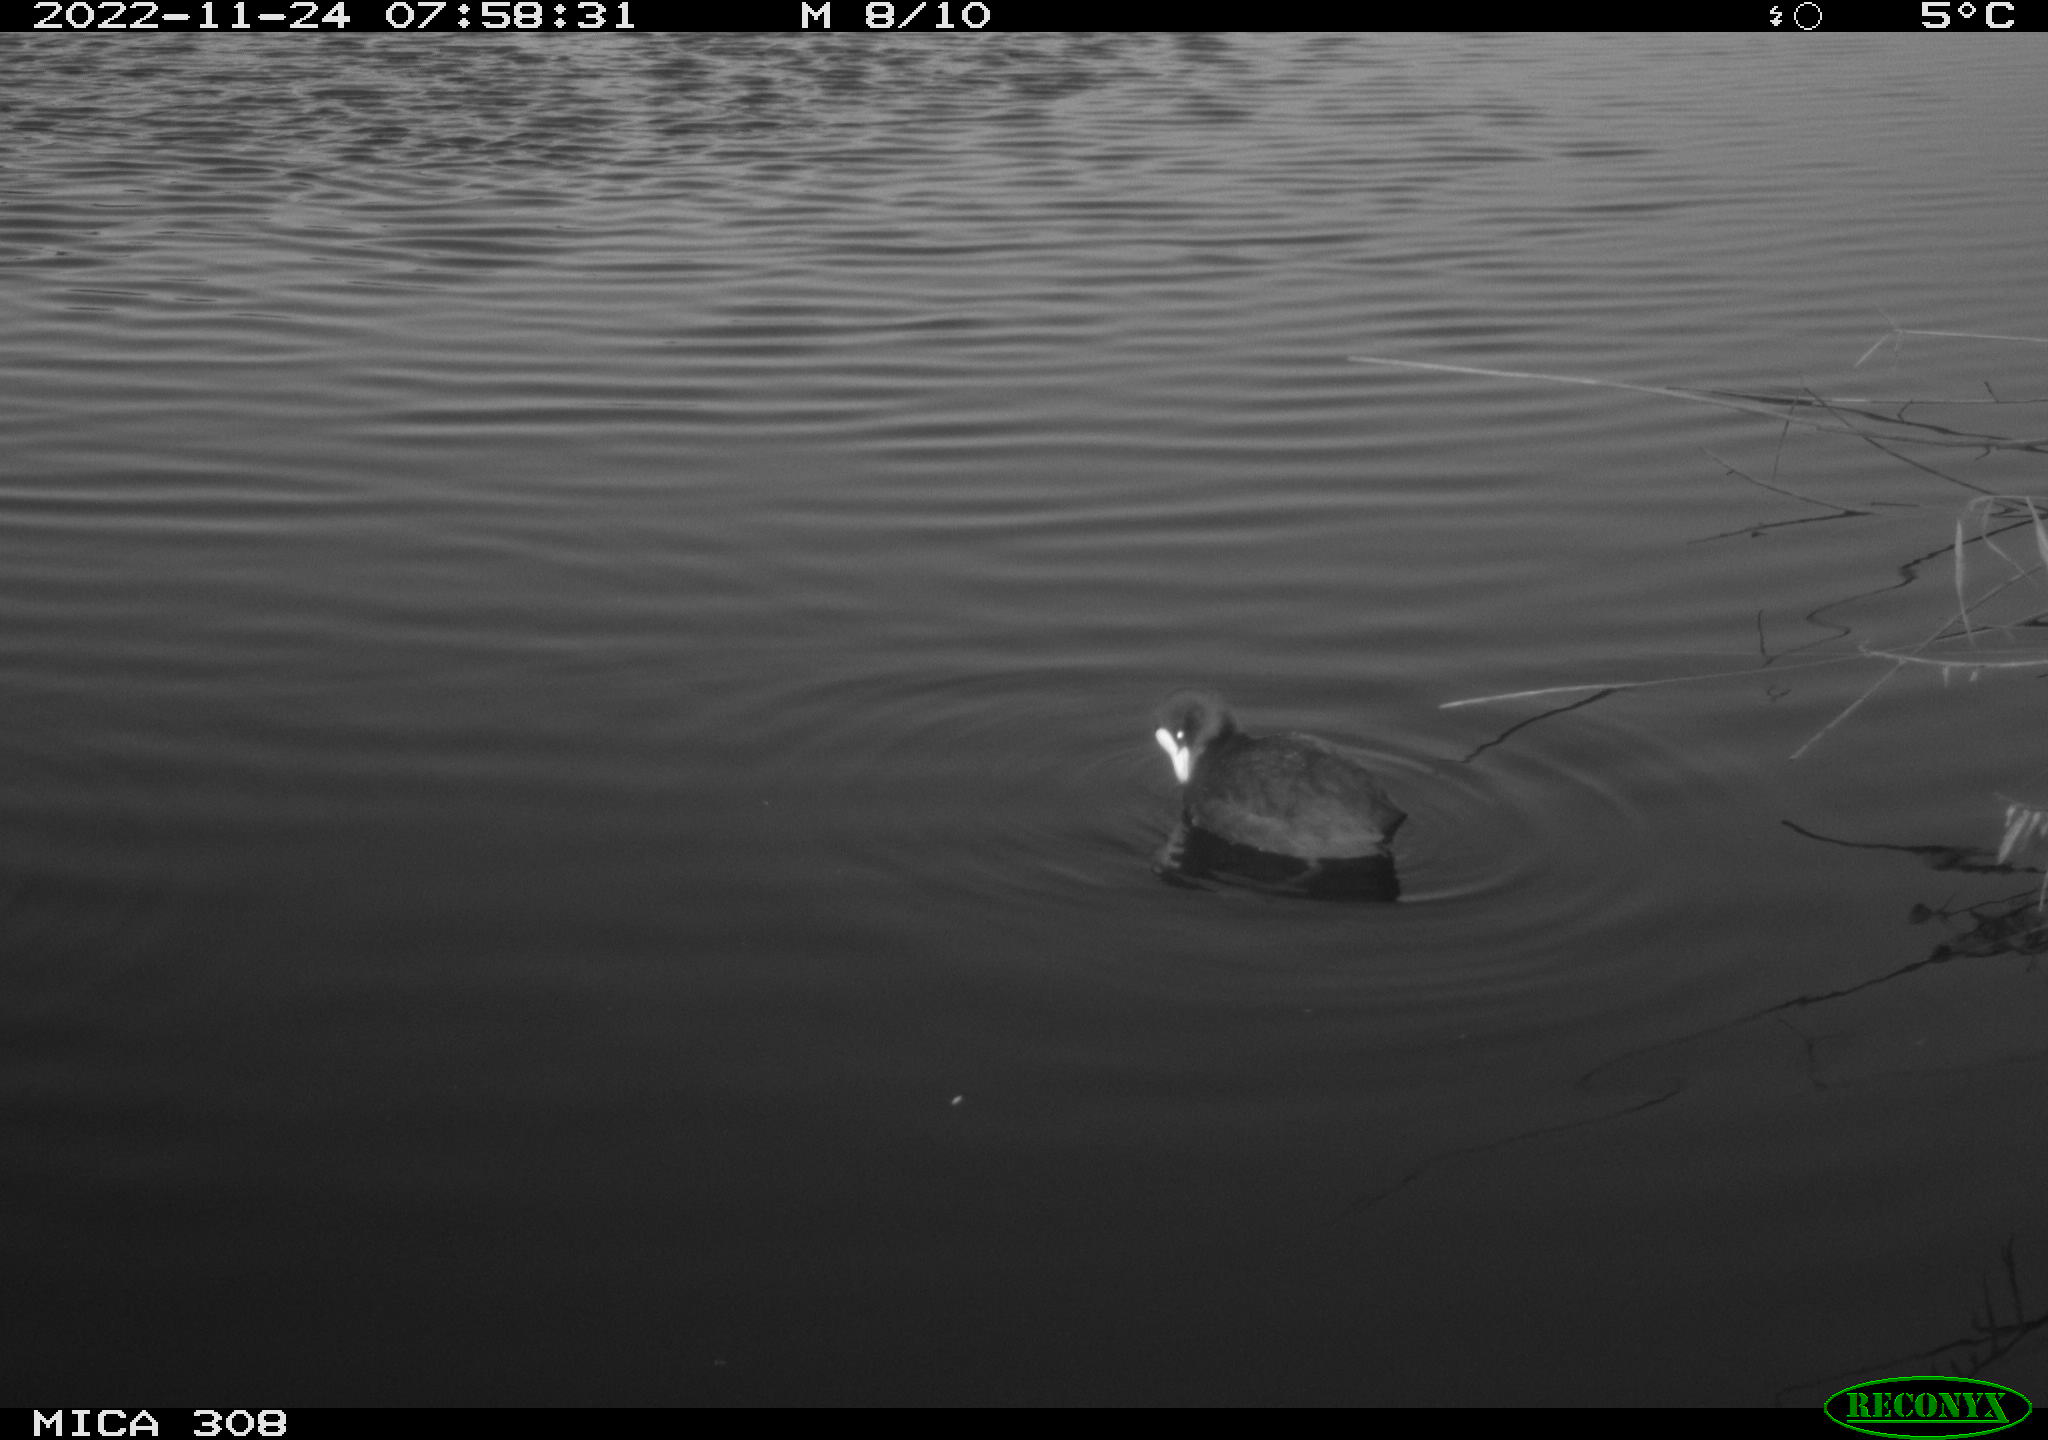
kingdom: Animalia
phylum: Chordata
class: Aves
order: Gruiformes
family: Rallidae
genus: Gallinula
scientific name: Gallinula chloropus
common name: Common moorhen
